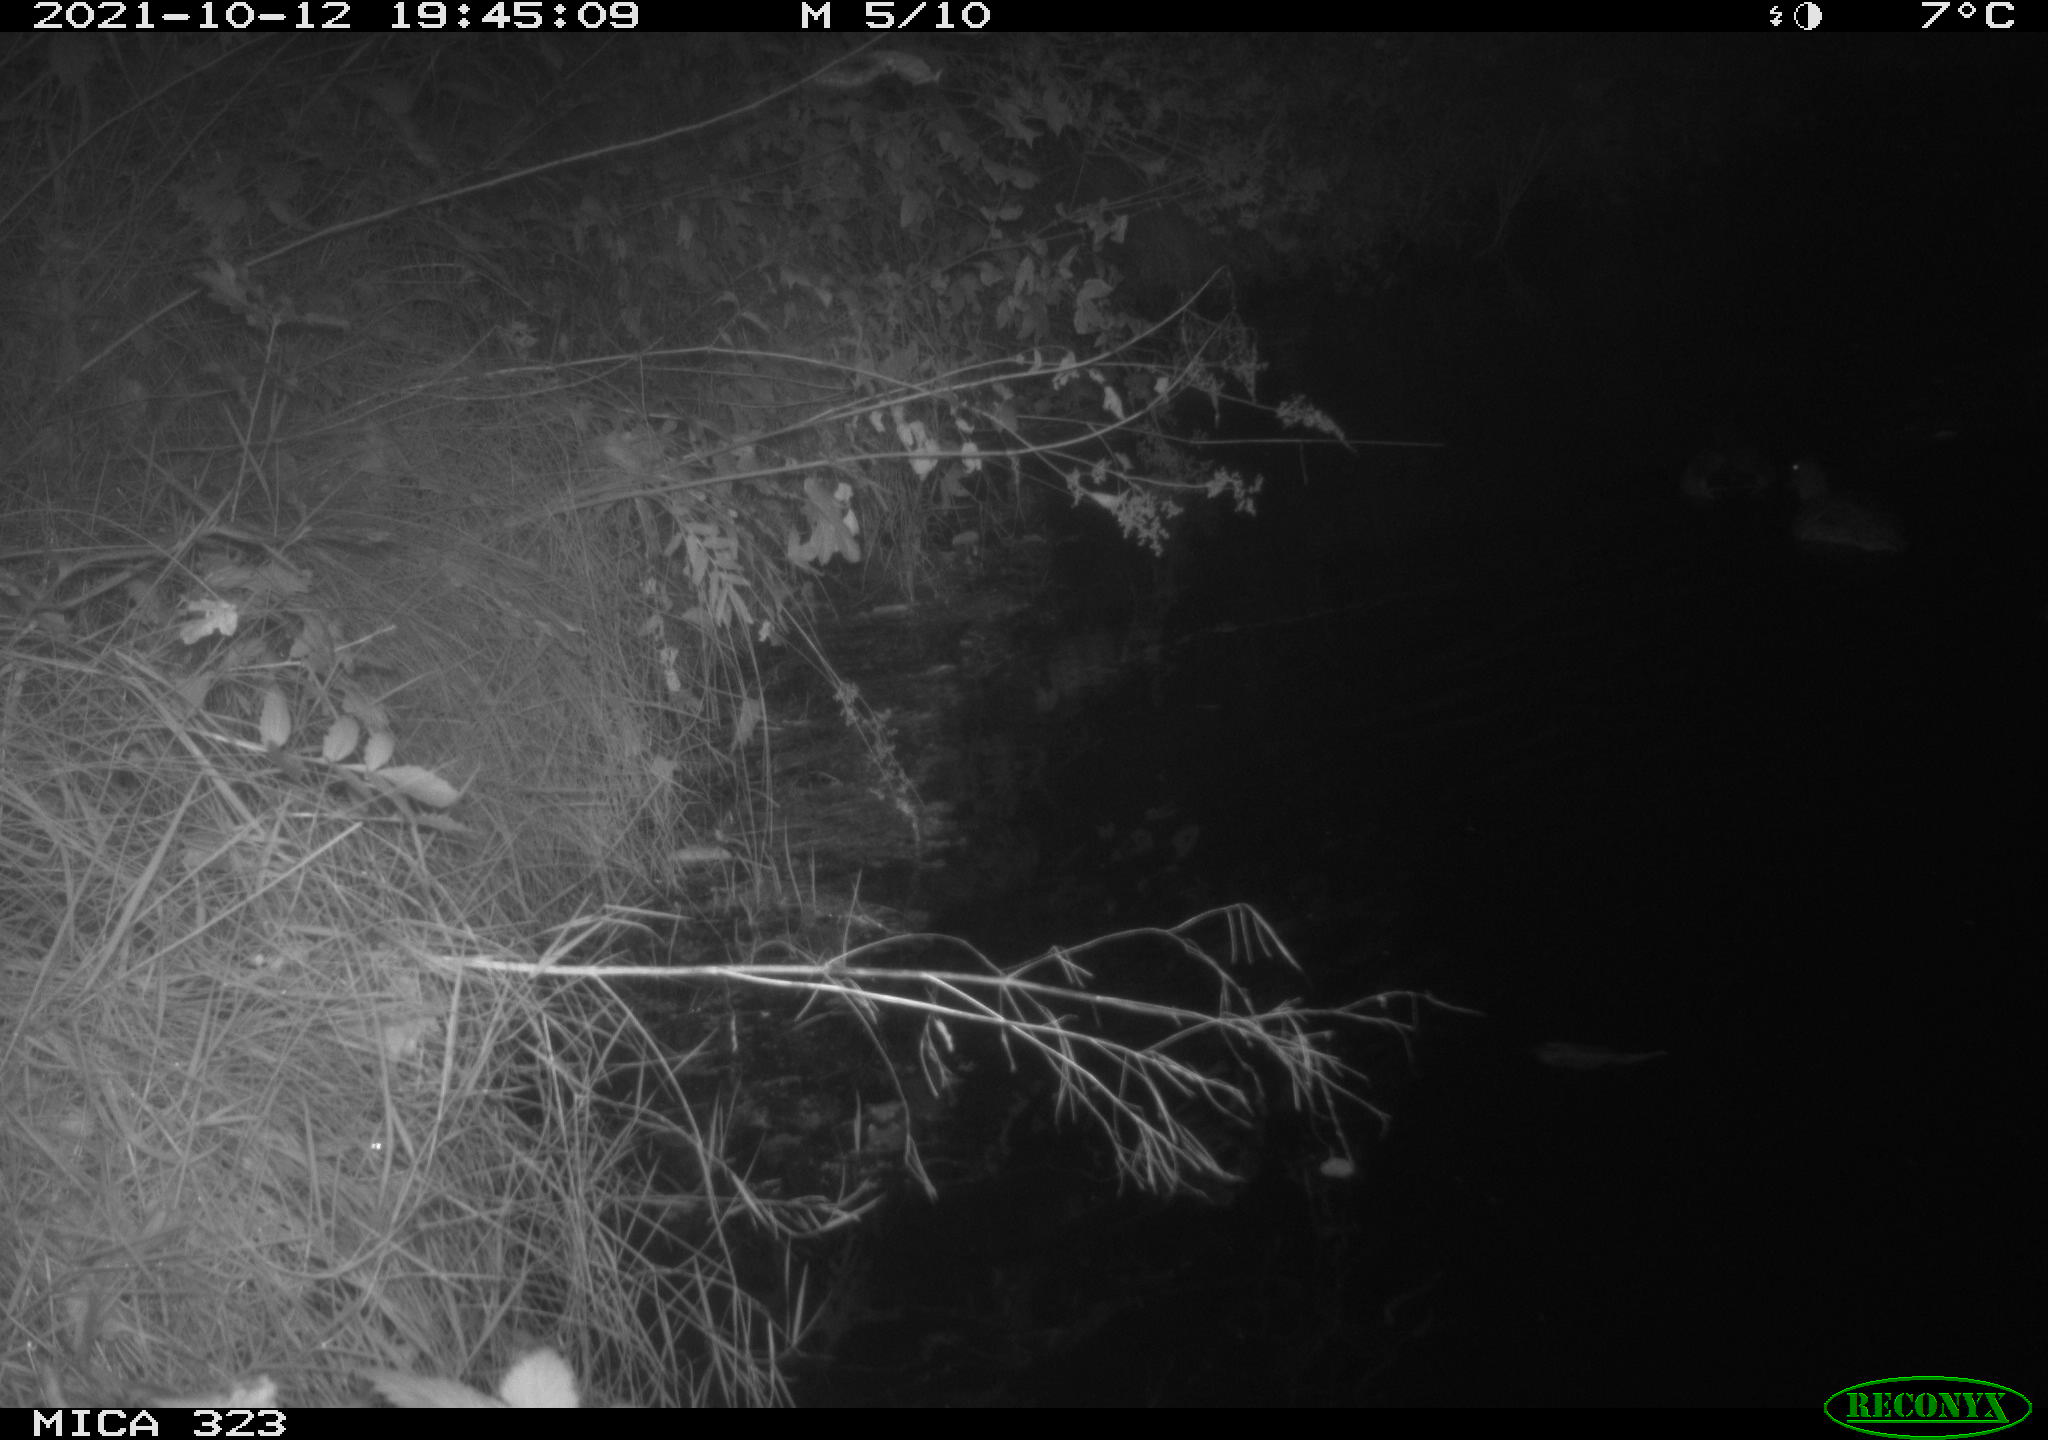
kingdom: Animalia
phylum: Chordata
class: Aves
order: Anseriformes
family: Anatidae
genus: Anas
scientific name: Anas
